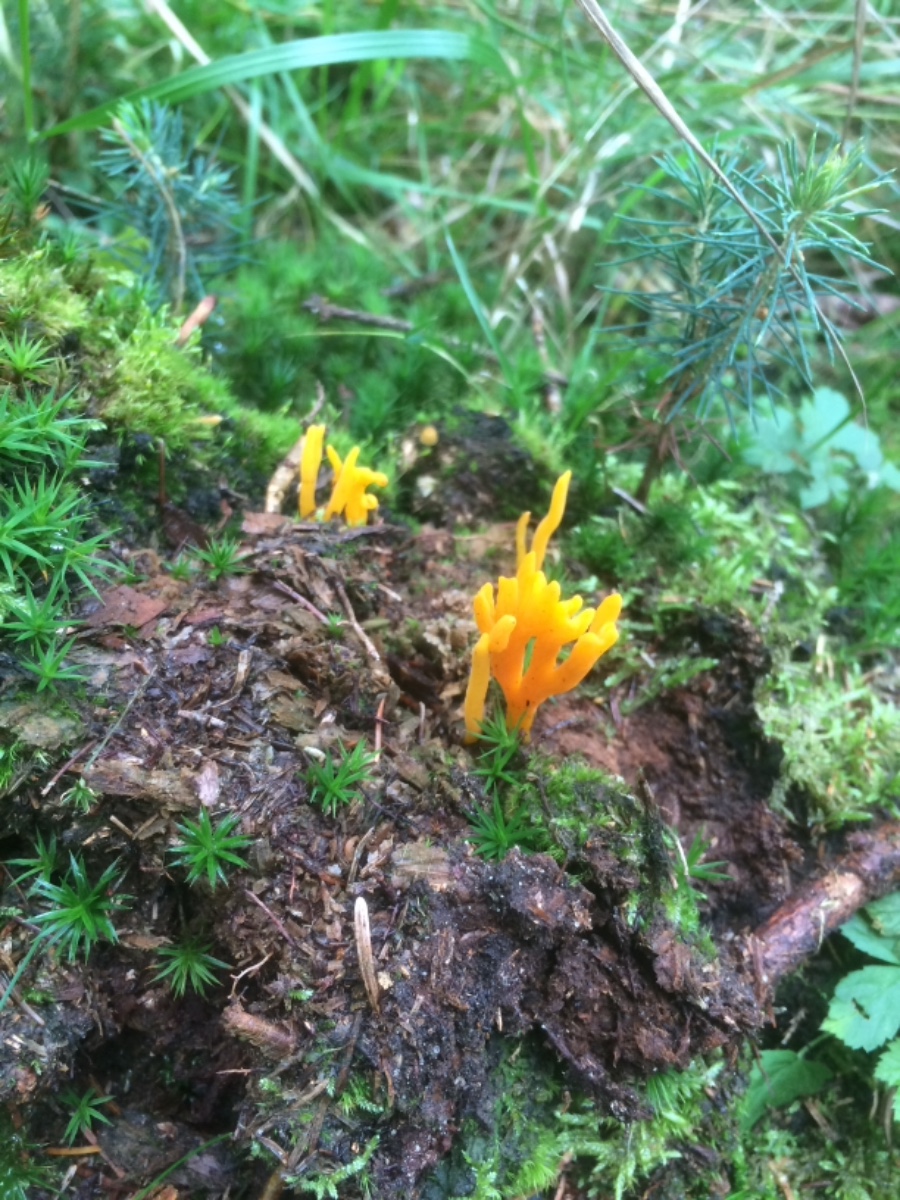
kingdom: Fungi
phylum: Basidiomycota
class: Dacrymycetes
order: Dacrymycetales
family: Dacrymycetaceae
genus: Calocera
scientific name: Calocera viscosa
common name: almindelig guldgaffel
